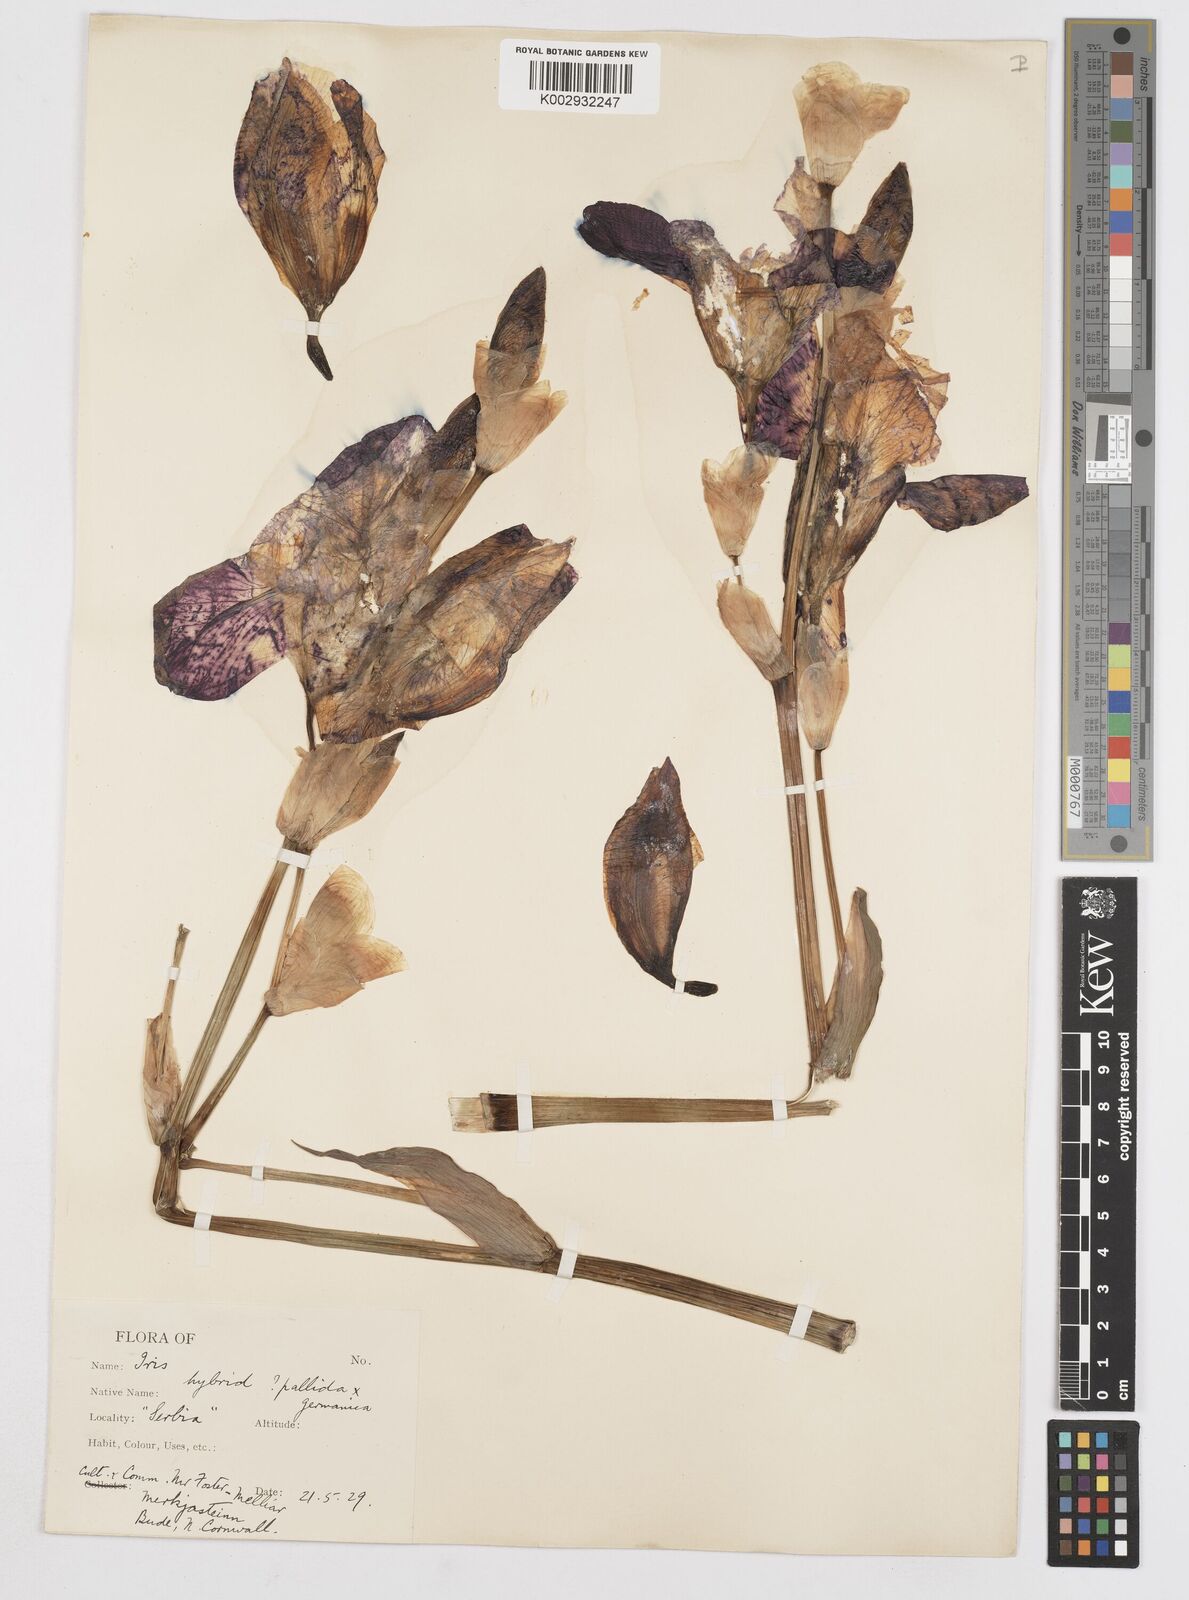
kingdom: Plantae
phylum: Tracheophyta
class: Liliopsida
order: Asparagales
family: Iridaceae
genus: Iris
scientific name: Iris
